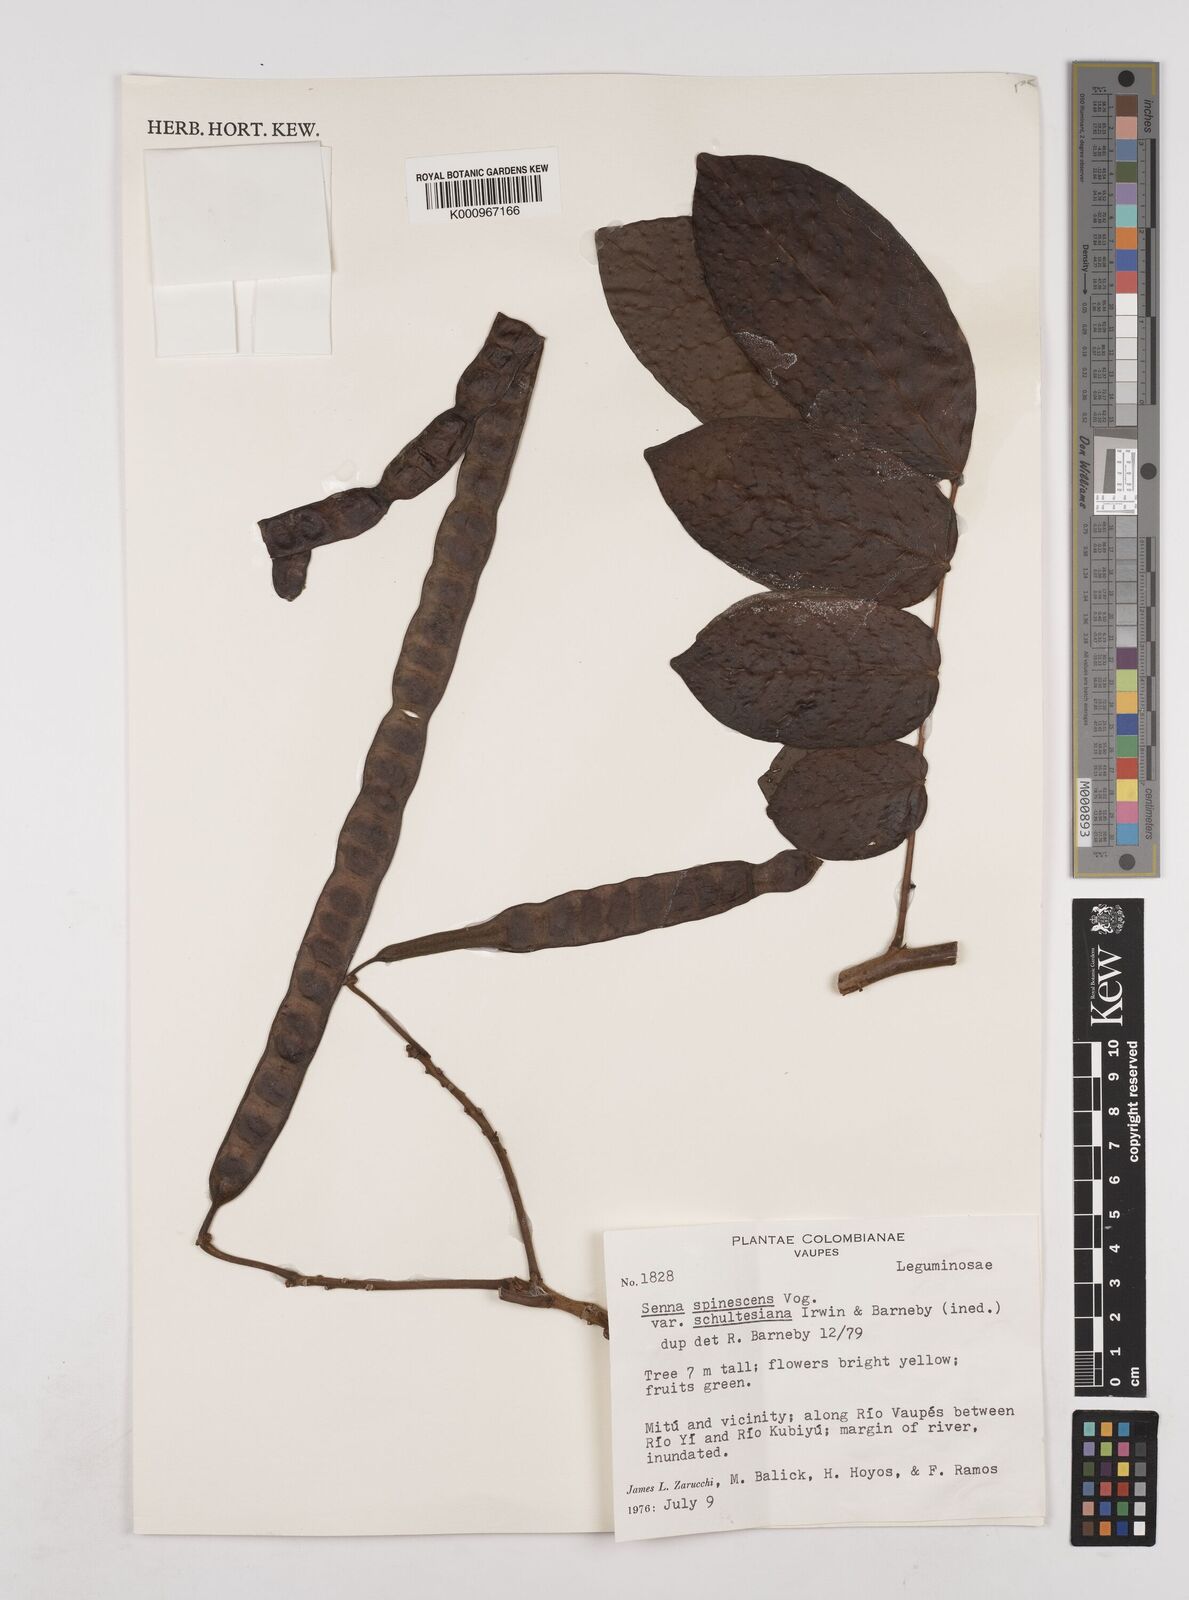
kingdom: Plantae
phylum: Tracheophyta
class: Magnoliopsida
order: Fabales
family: Fabaceae
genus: Senna
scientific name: Senna spinescens
